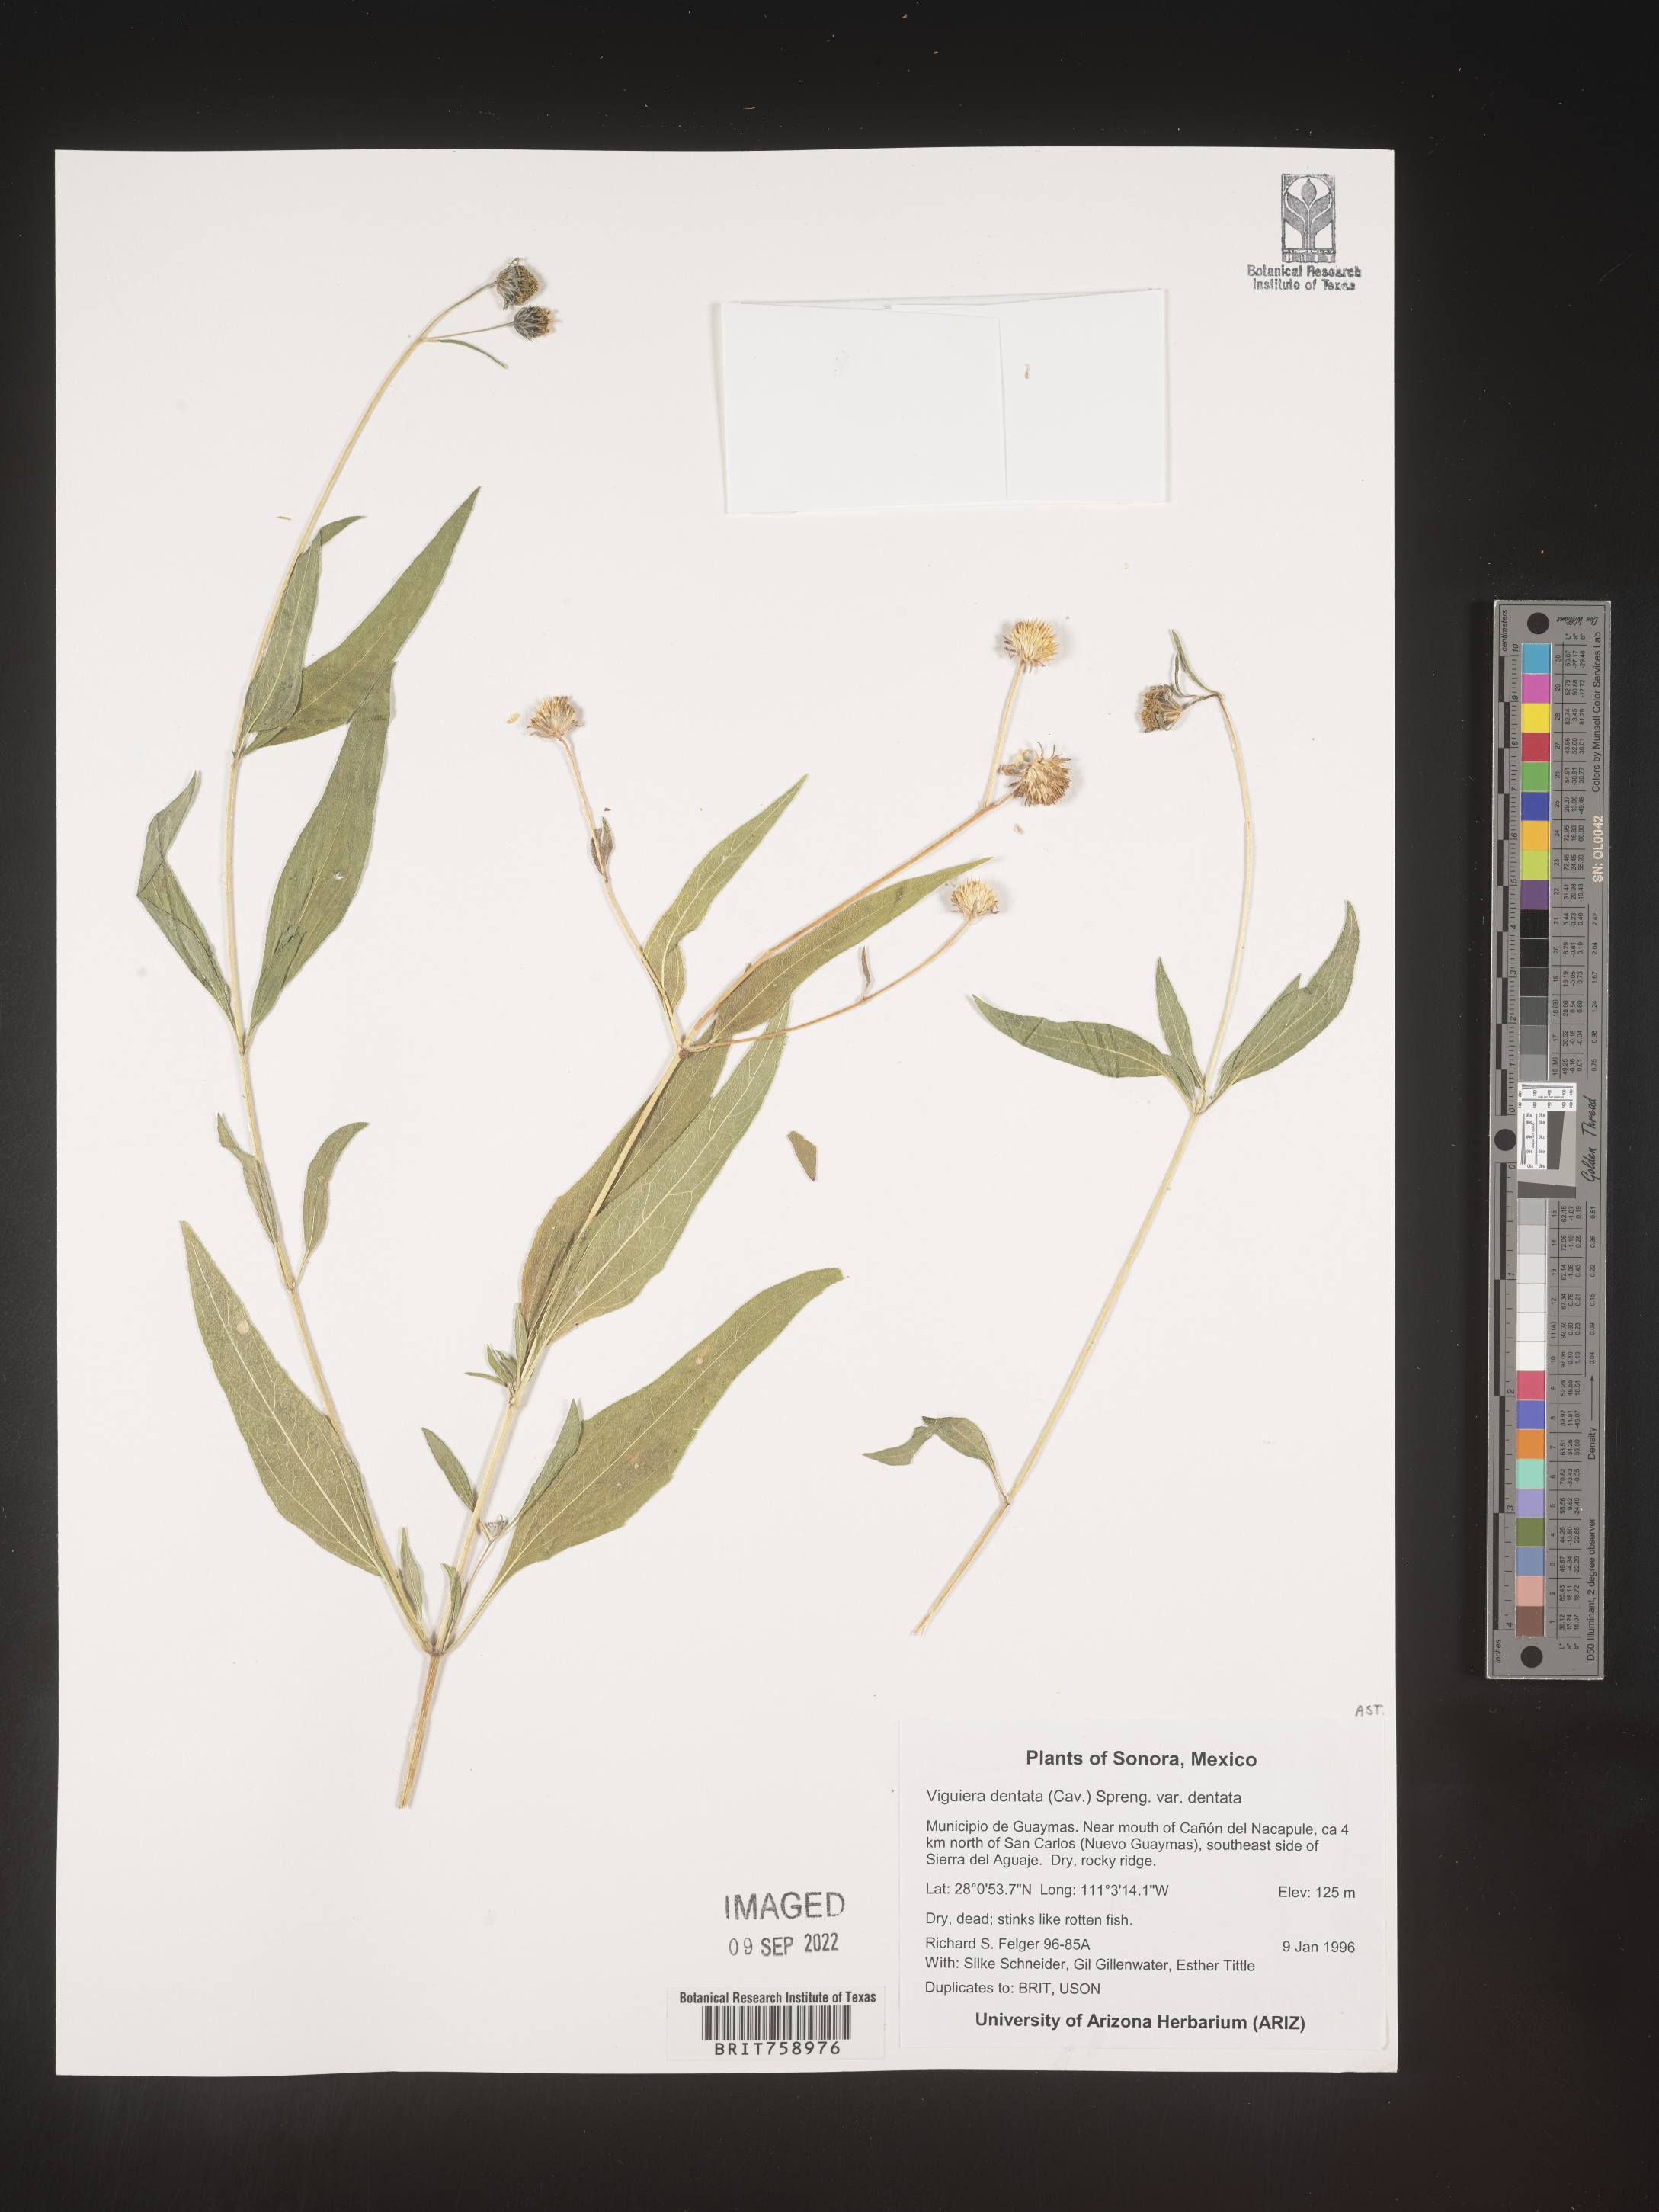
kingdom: Plantae
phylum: Tracheophyta
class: Magnoliopsida
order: Asterales
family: Asteraceae
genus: Viguiera
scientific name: Viguiera
